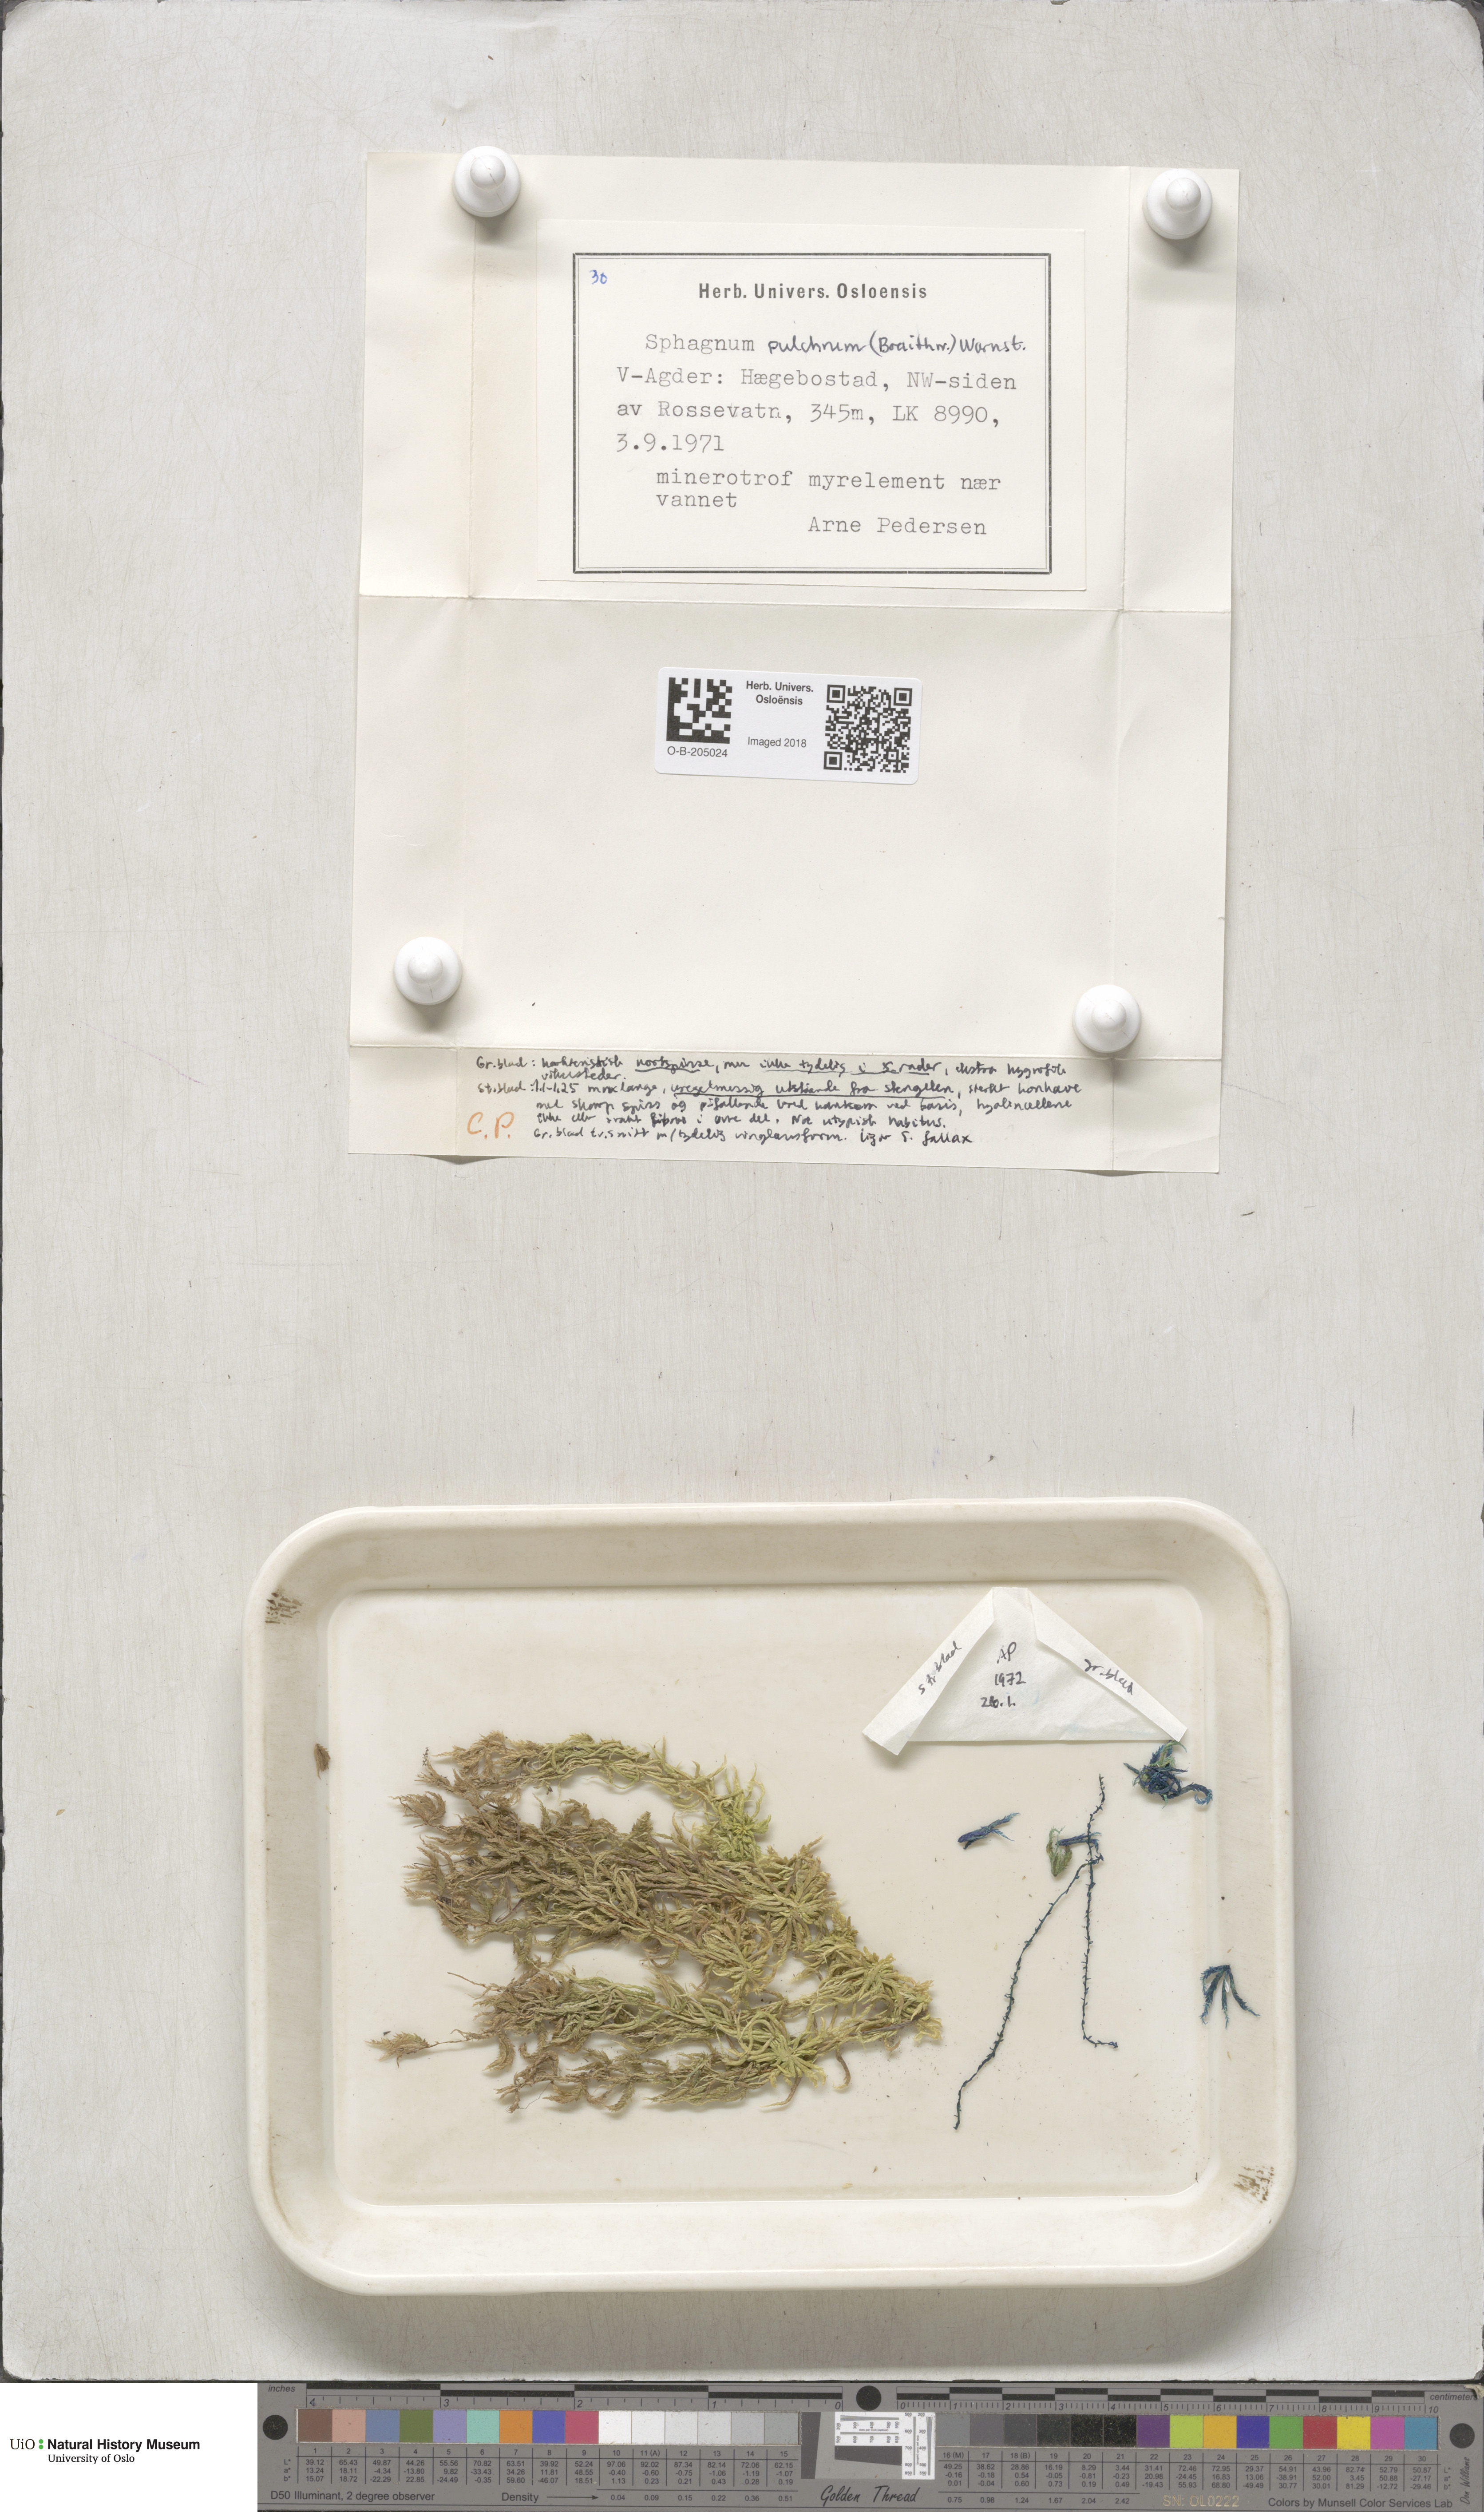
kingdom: Plantae
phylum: Bryophyta
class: Sphagnopsida
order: Sphagnales
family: Sphagnaceae
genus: Sphagnum
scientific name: Sphagnum pulchrum
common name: Beautiful peat moss
